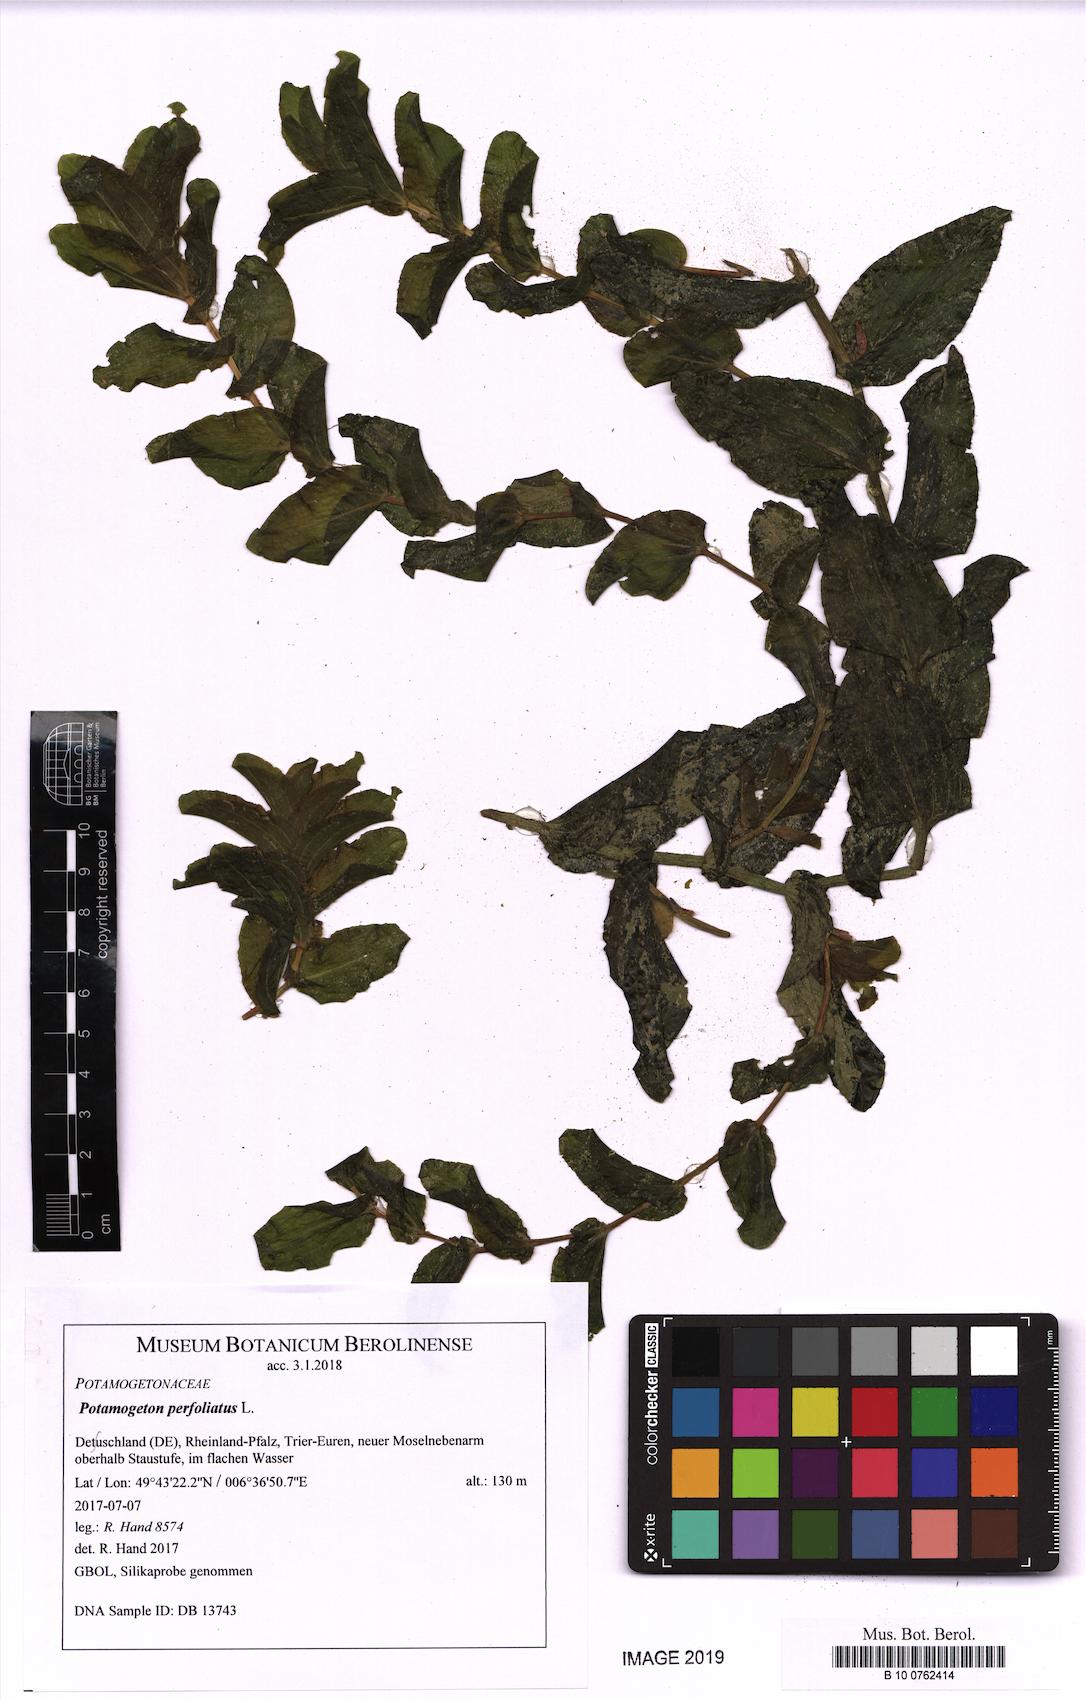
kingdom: Plantae
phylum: Tracheophyta
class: Liliopsida
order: Alismatales
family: Potamogetonaceae
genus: Potamogeton
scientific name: Potamogeton perfoliatus
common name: Perfoliate pondweed
